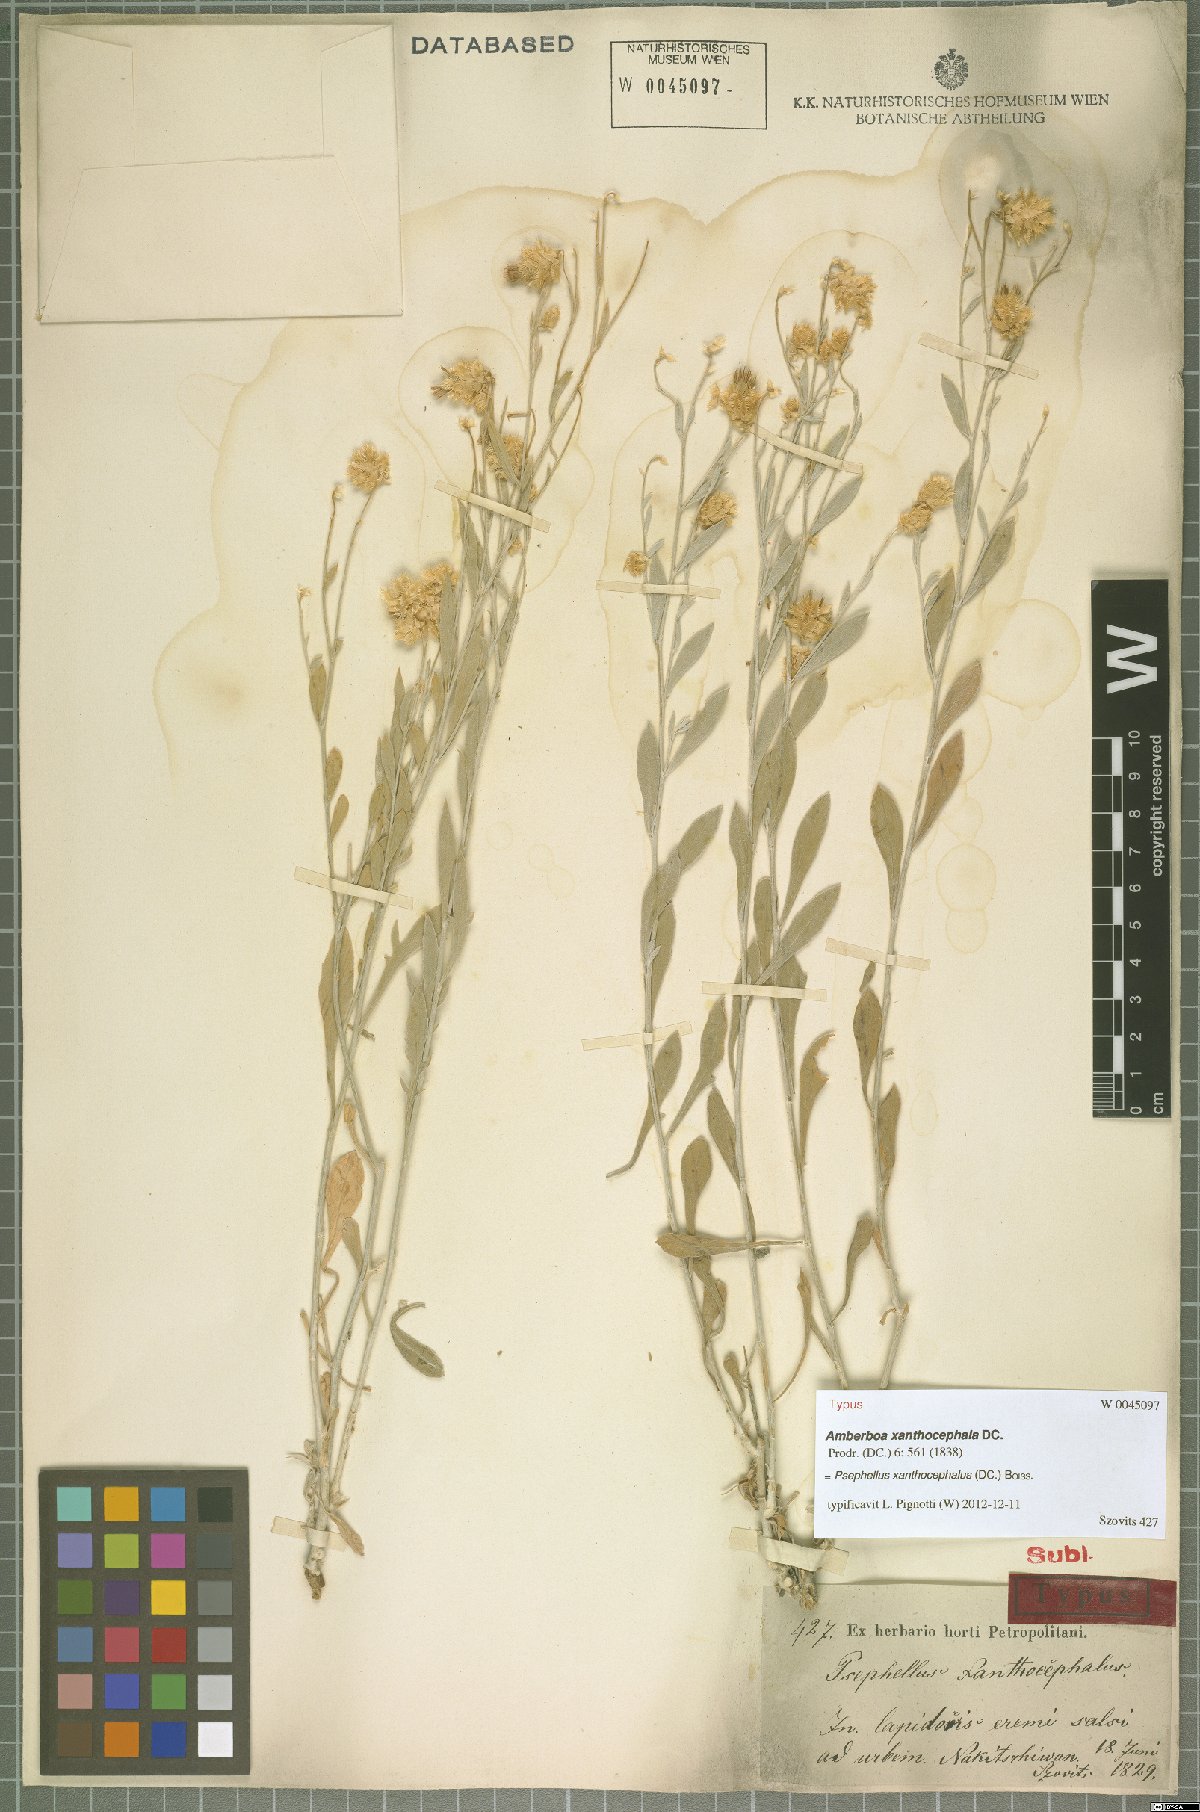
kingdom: Plantae
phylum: Tracheophyta
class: Magnoliopsida
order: Asterales
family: Asteraceae
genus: Psephellus
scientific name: Psephellus xanthocephalus
